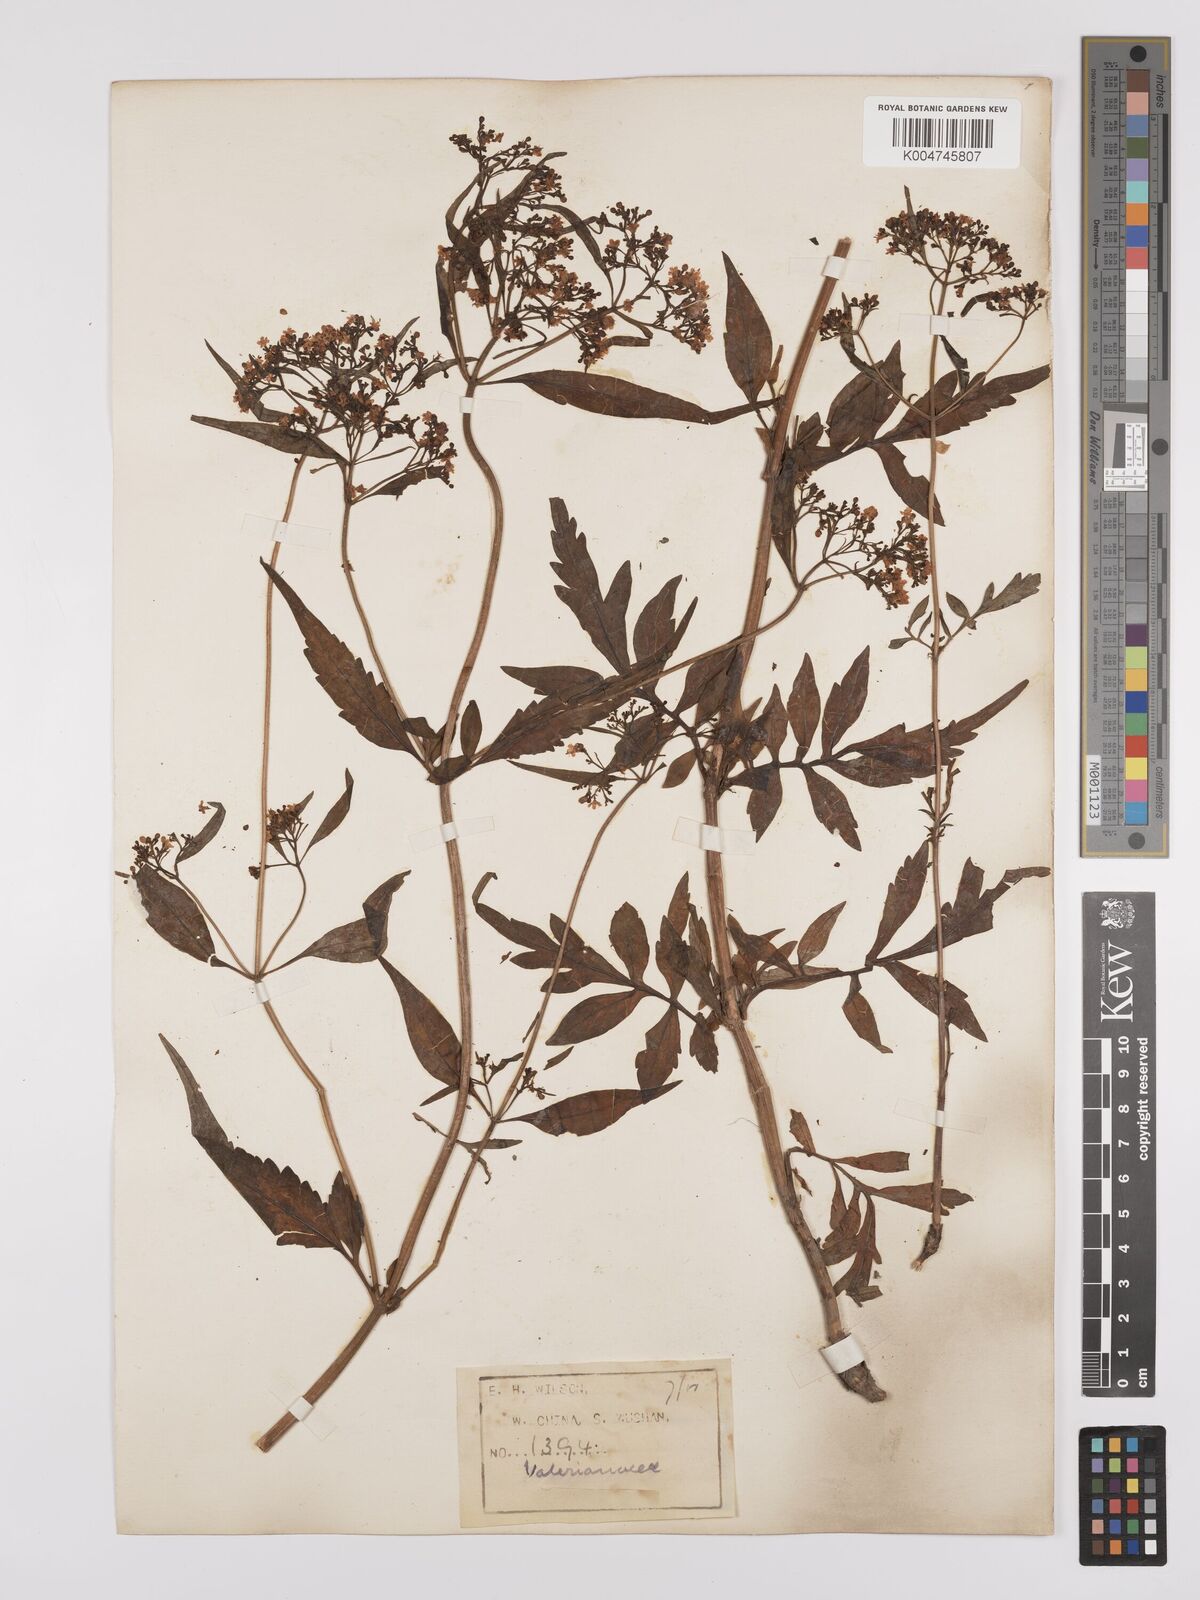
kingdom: Plantae
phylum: Tracheophyta
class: Magnoliopsida
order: Dipsacales
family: Caprifoliaceae
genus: Patrinia
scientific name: Patrinia
